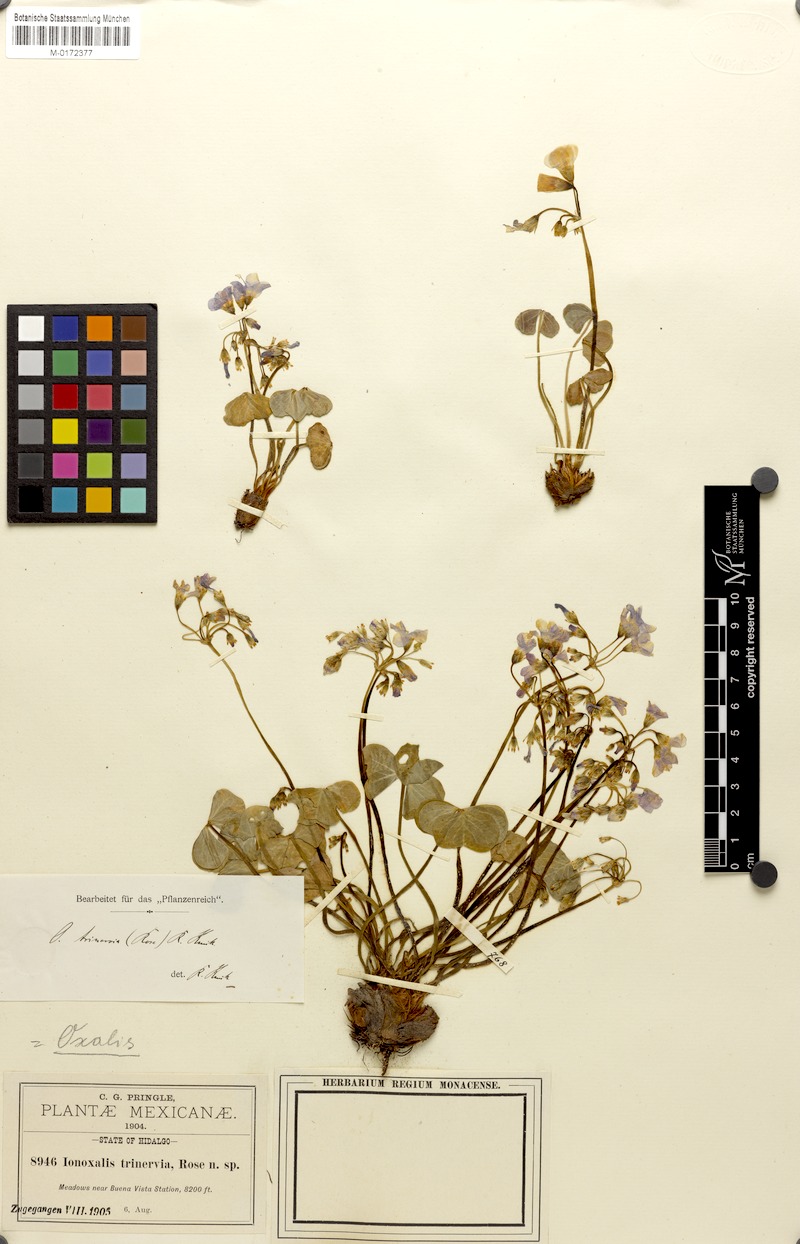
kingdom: Plantae
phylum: Tracheophyta
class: Magnoliopsida
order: Oxalidales
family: Oxalidaceae
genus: Oxalis
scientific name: Oxalis jacquiniana
